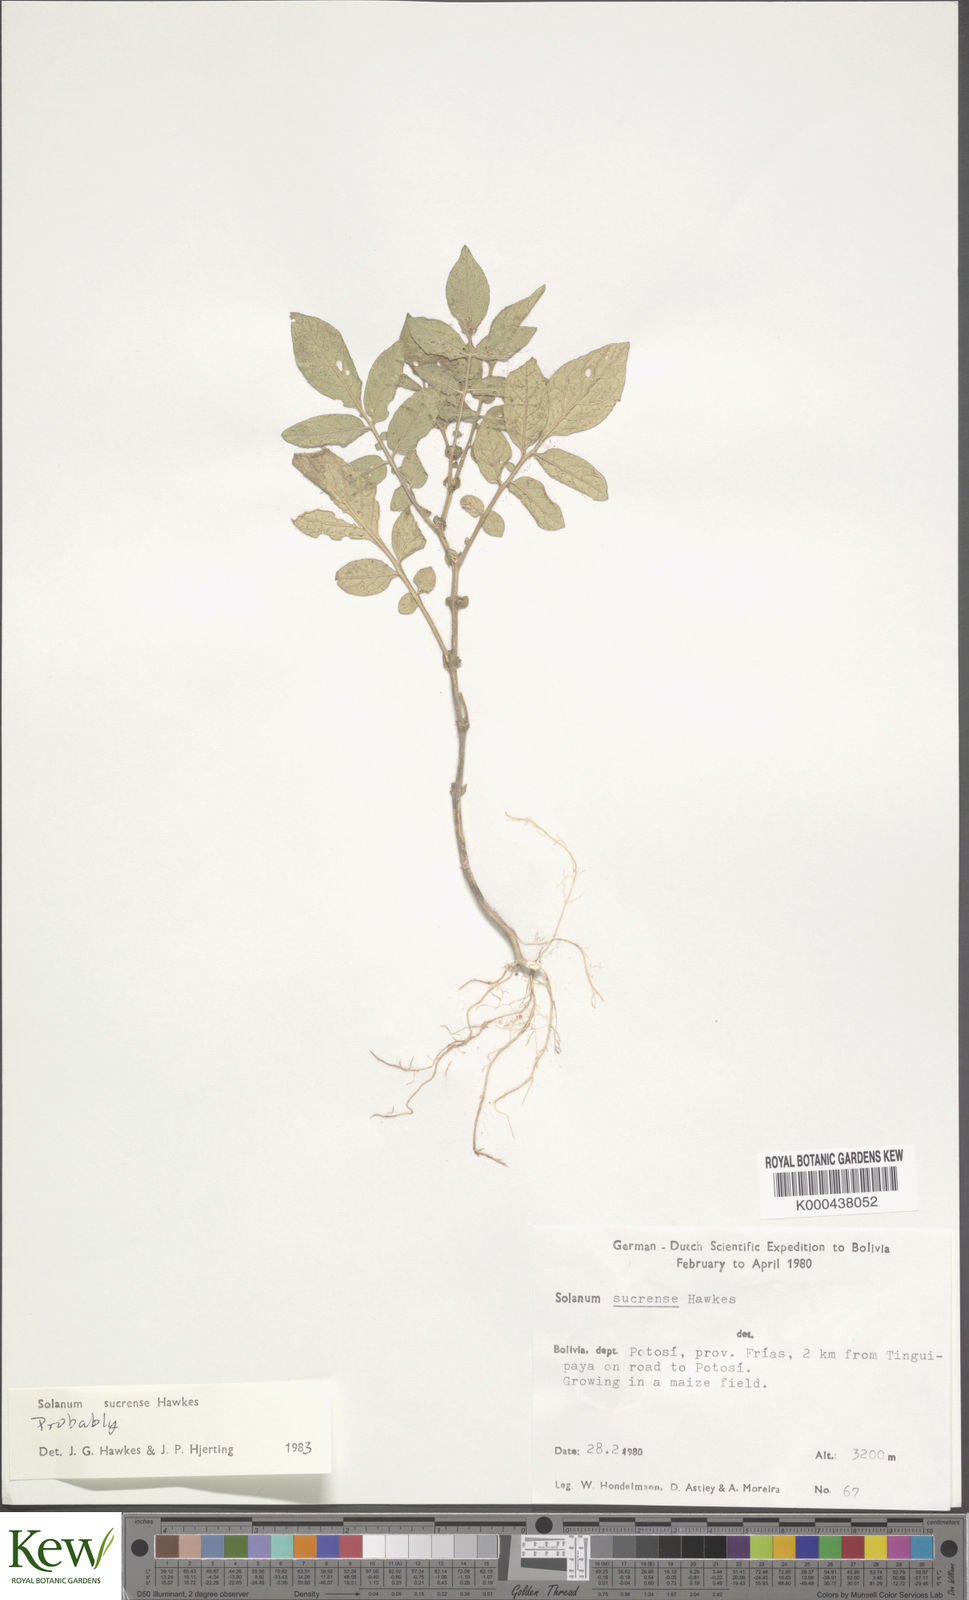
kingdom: Plantae
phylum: Tracheophyta
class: Magnoliopsida
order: Solanales
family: Solanaceae
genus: Solanum
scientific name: Solanum brevicaule
